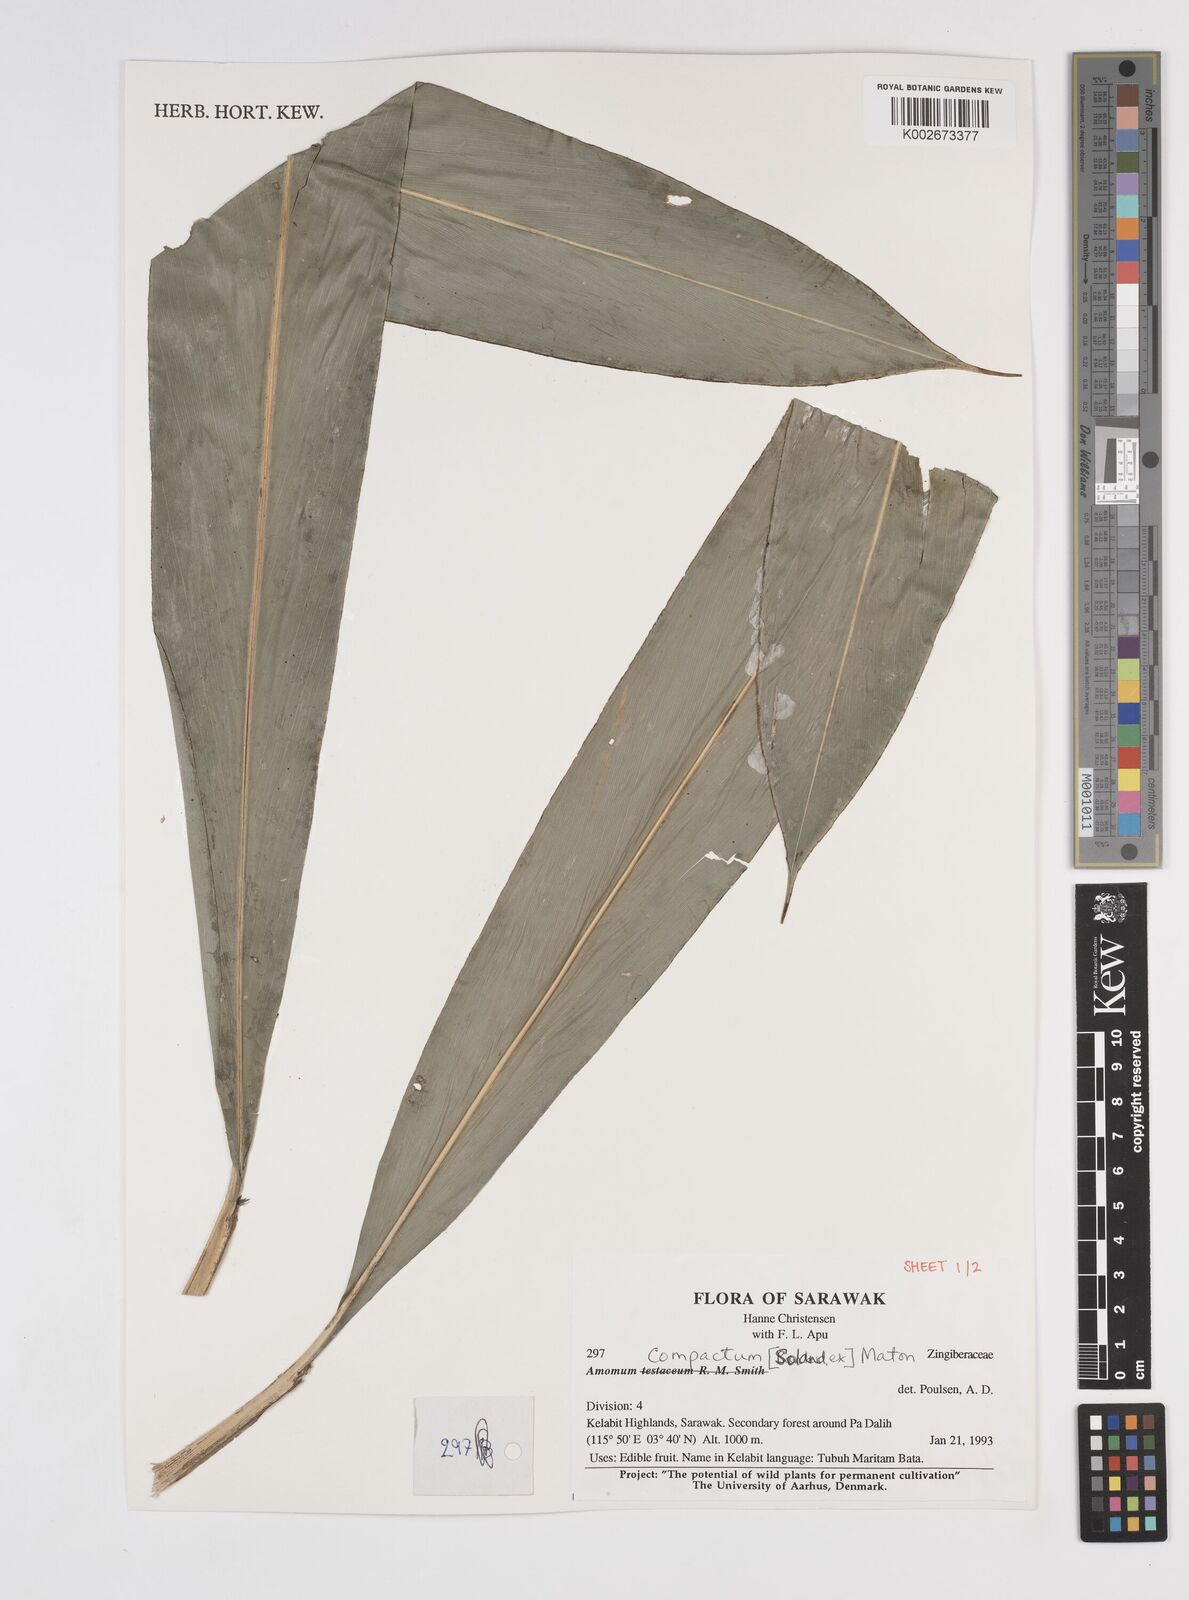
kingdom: Plantae
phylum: Tracheophyta
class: Liliopsida
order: Zingiberales
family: Zingiberaceae
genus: Wurfbainia
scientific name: Wurfbainia compacta
